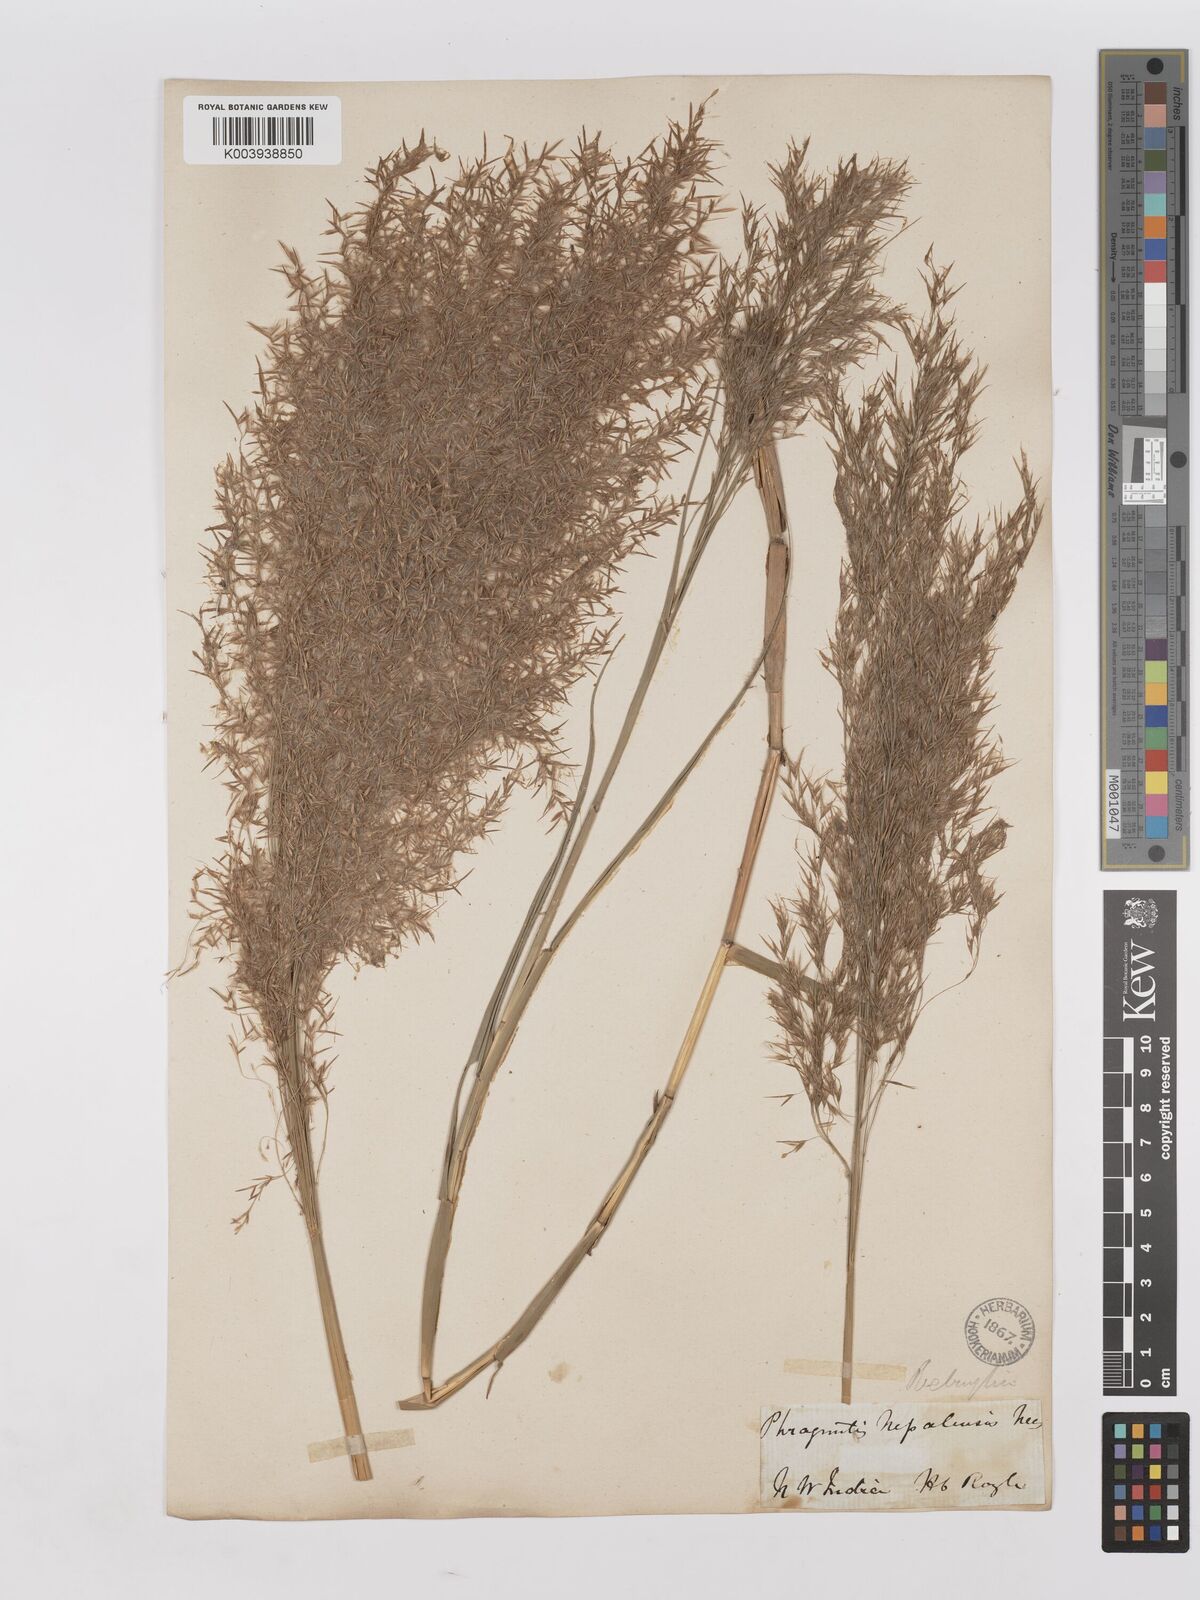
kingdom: Plantae
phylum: Tracheophyta
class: Liliopsida
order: Poales
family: Poaceae
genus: Phragmites
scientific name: Phragmites karka
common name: Tropical reed
